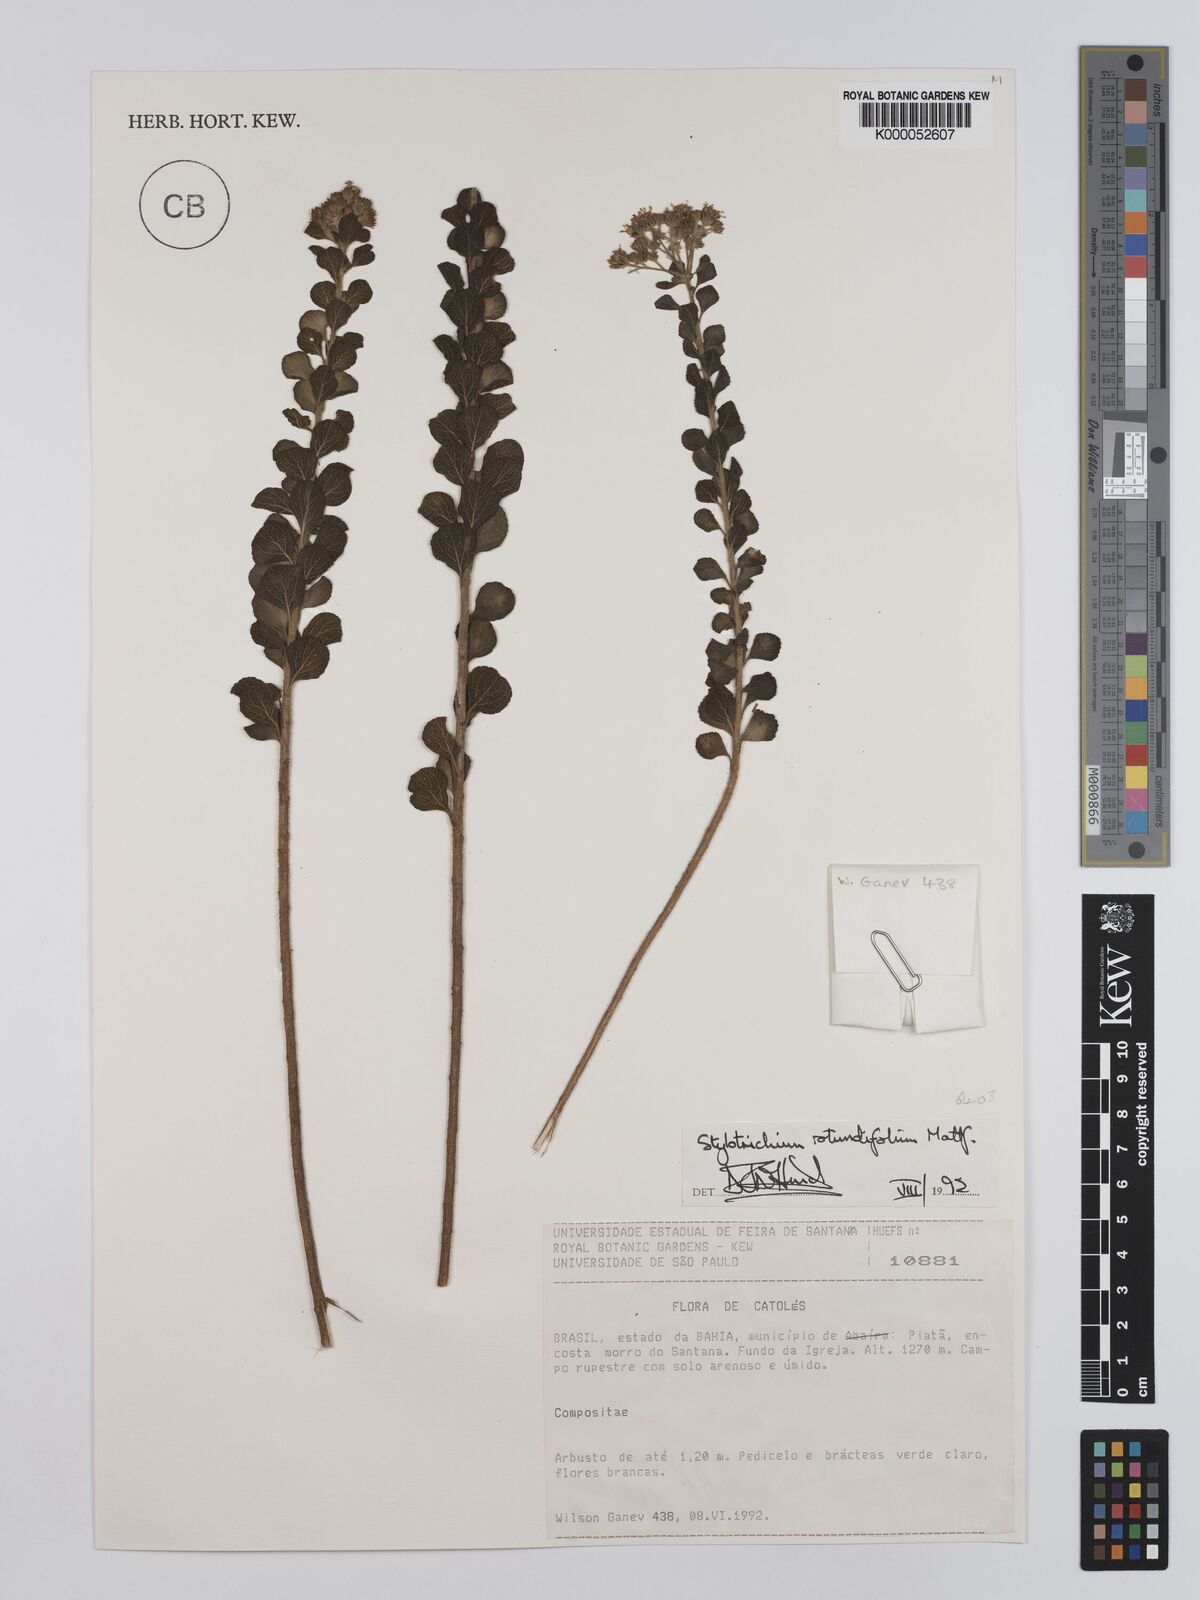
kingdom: Plantae
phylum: Tracheophyta
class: Magnoliopsida
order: Asterales
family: Asteraceae
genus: Stylotrichium
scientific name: Stylotrichium rotundifolium
